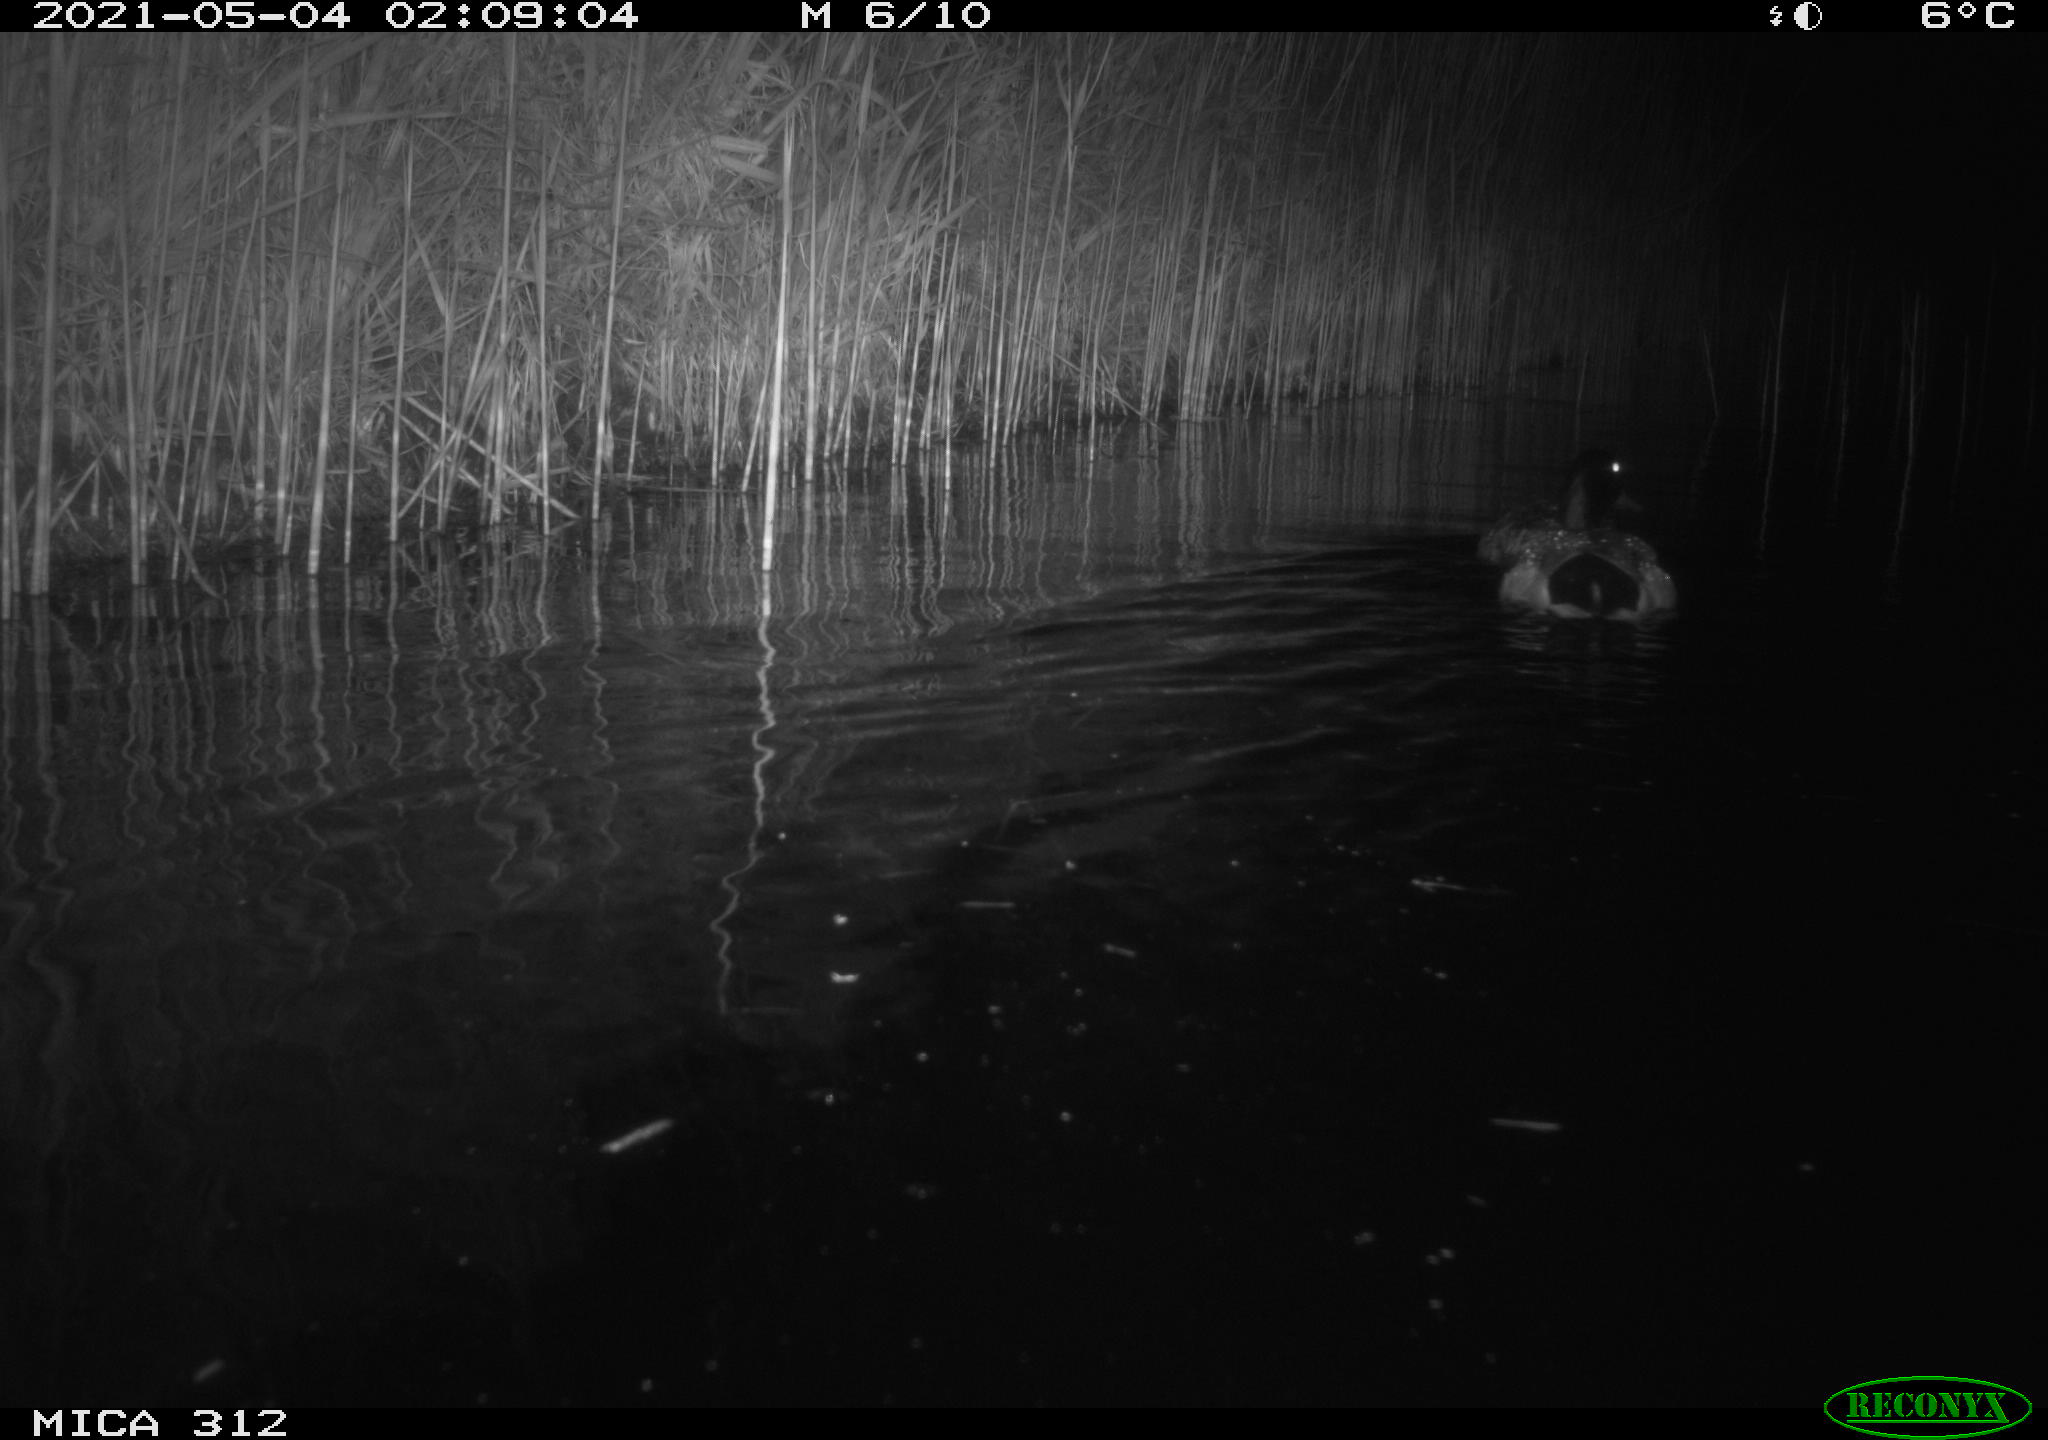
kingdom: Animalia
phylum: Chordata
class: Aves
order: Anseriformes
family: Anatidae
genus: Anas
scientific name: Anas platyrhynchos
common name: Mallard
